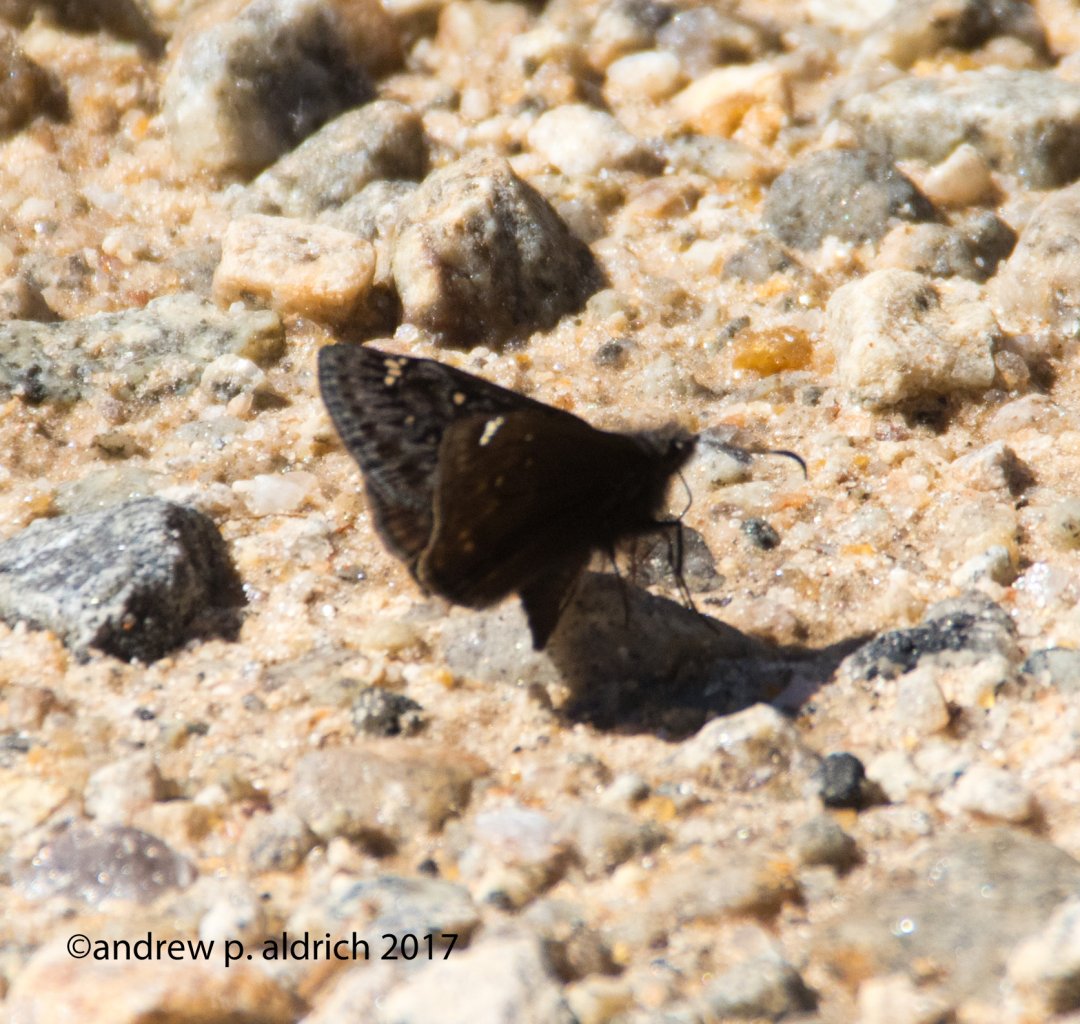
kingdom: Animalia
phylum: Arthropoda
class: Insecta
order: Lepidoptera
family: Hesperiidae
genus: Gesta
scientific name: Gesta
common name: Juvenal's Duskywing
